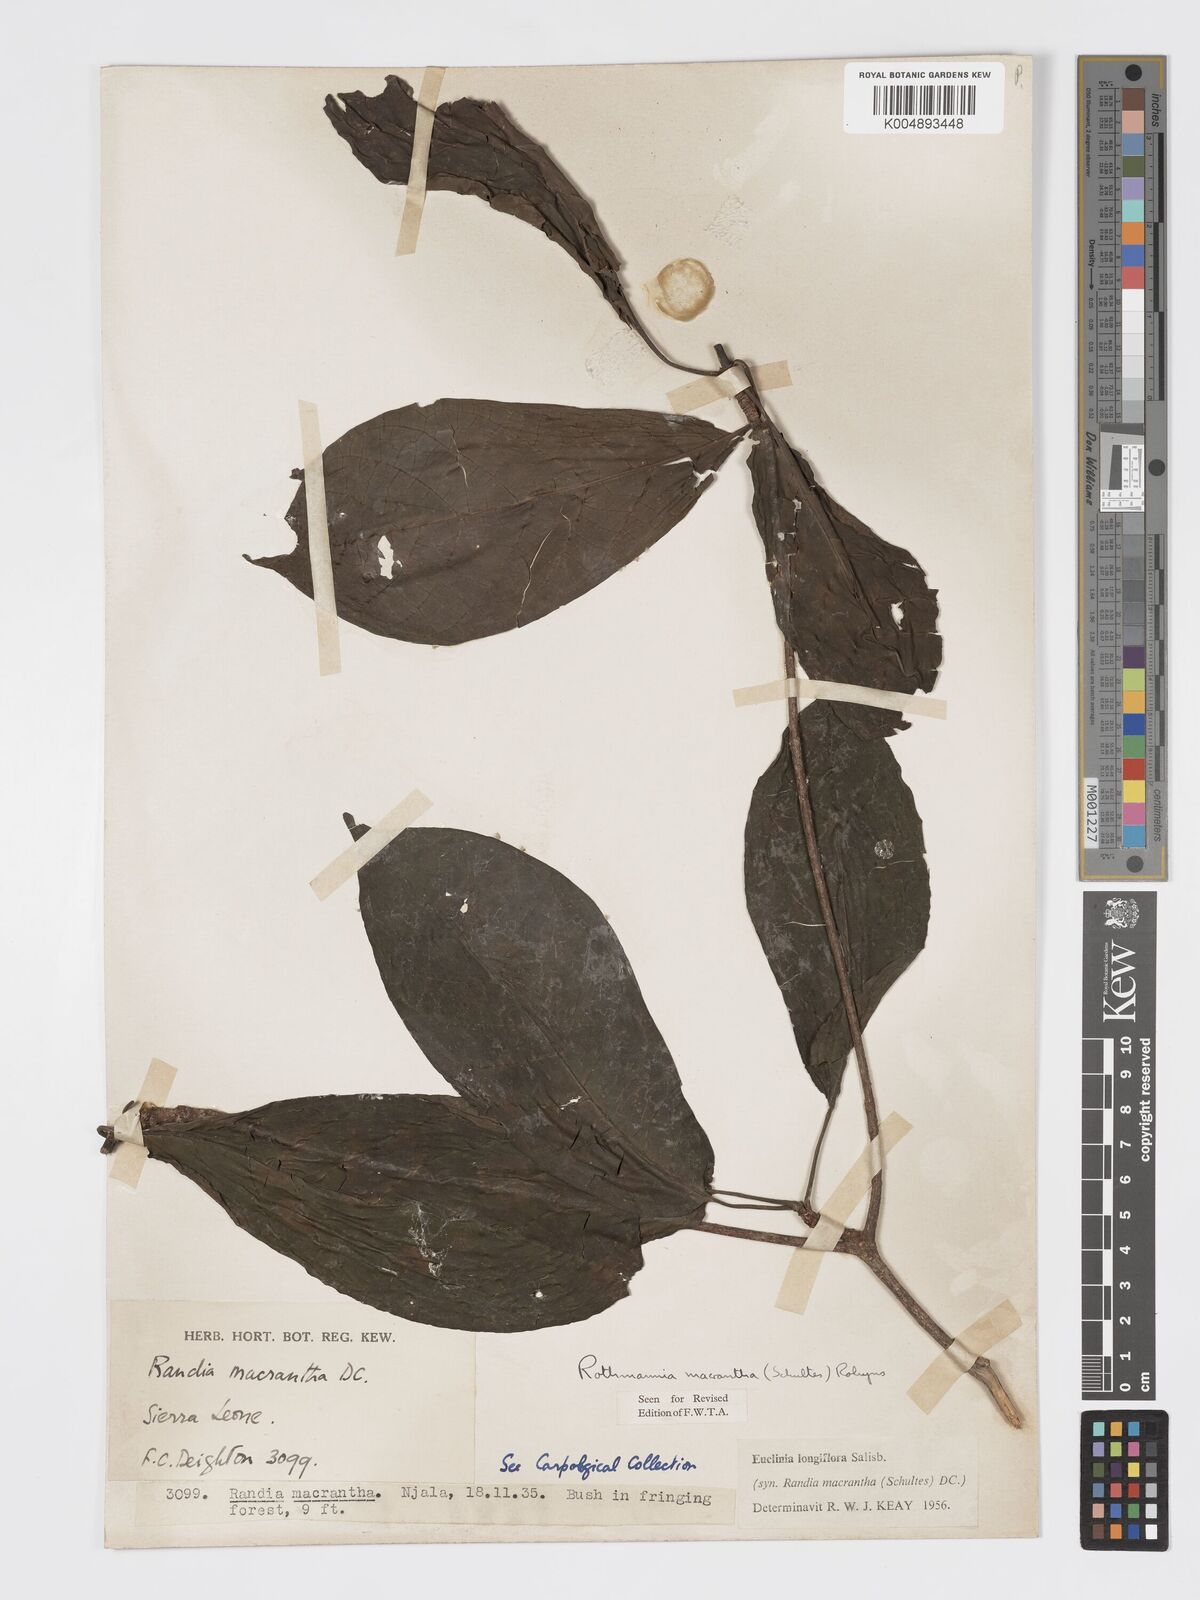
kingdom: Plantae
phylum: Tracheophyta
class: Magnoliopsida
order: Gentianales
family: Rubiaceae
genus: Euclinia
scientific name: Euclinia longiflora
